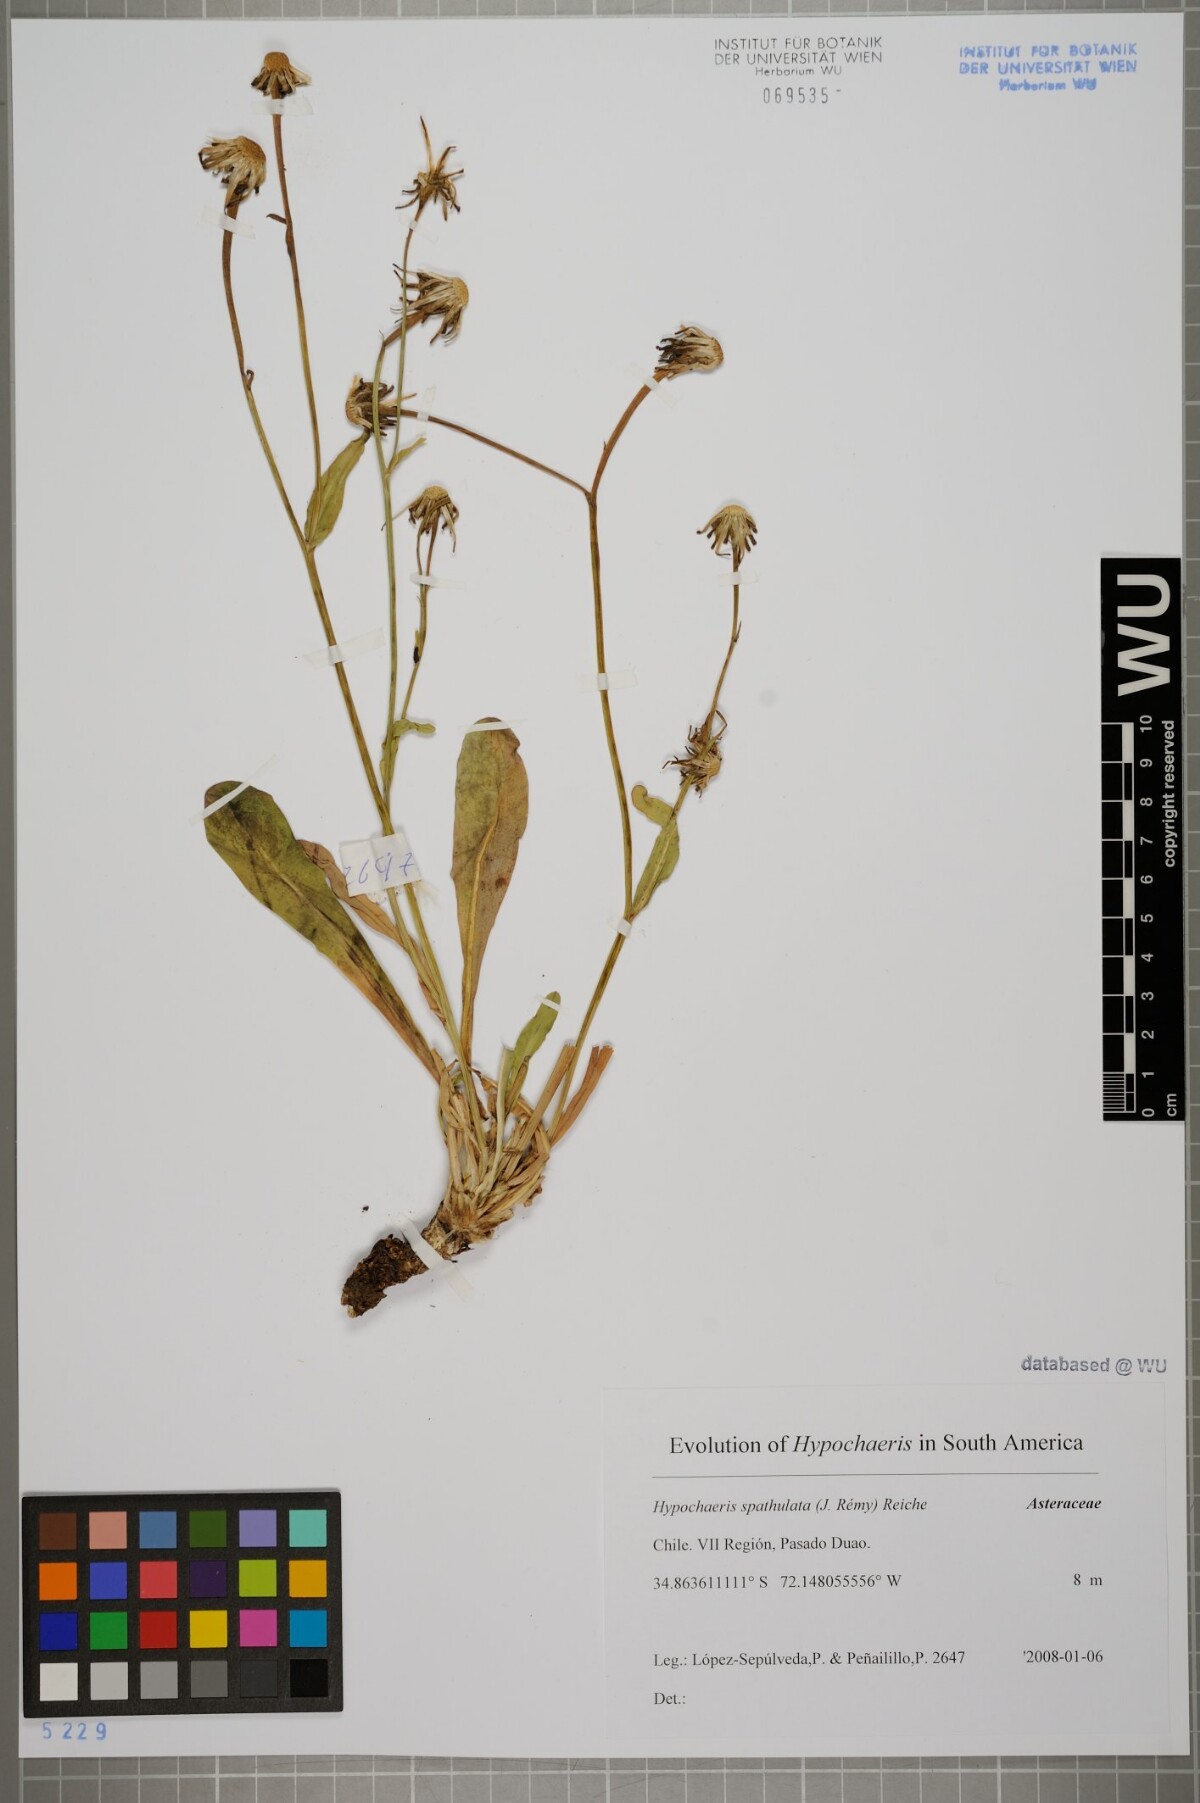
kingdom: Plantae
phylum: Tracheophyta
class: Magnoliopsida
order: Asterales
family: Asteraceae
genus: Hypochaeris
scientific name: Hypochaeris spathulata
